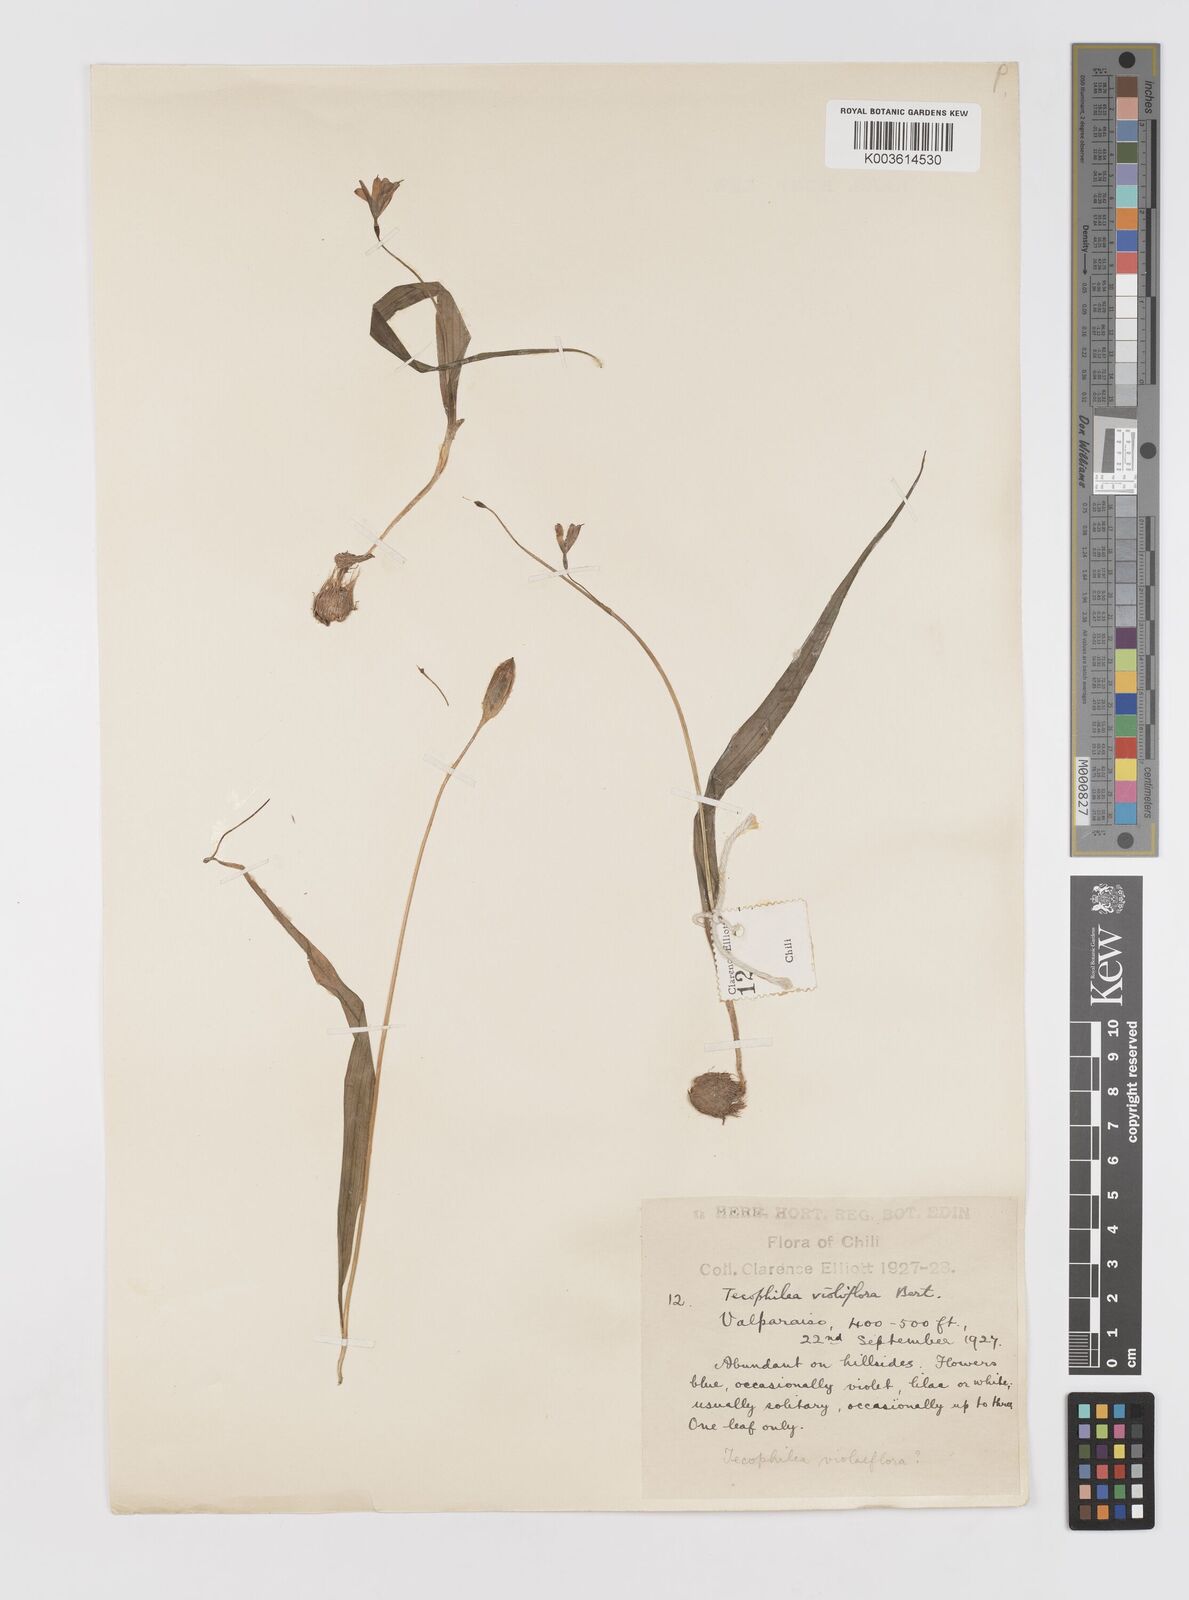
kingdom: Plantae
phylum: Tracheophyta
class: Liliopsida
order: Asparagales
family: Tecophilaeaceae
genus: Tecophilaea
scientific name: Tecophilaea violiflora
